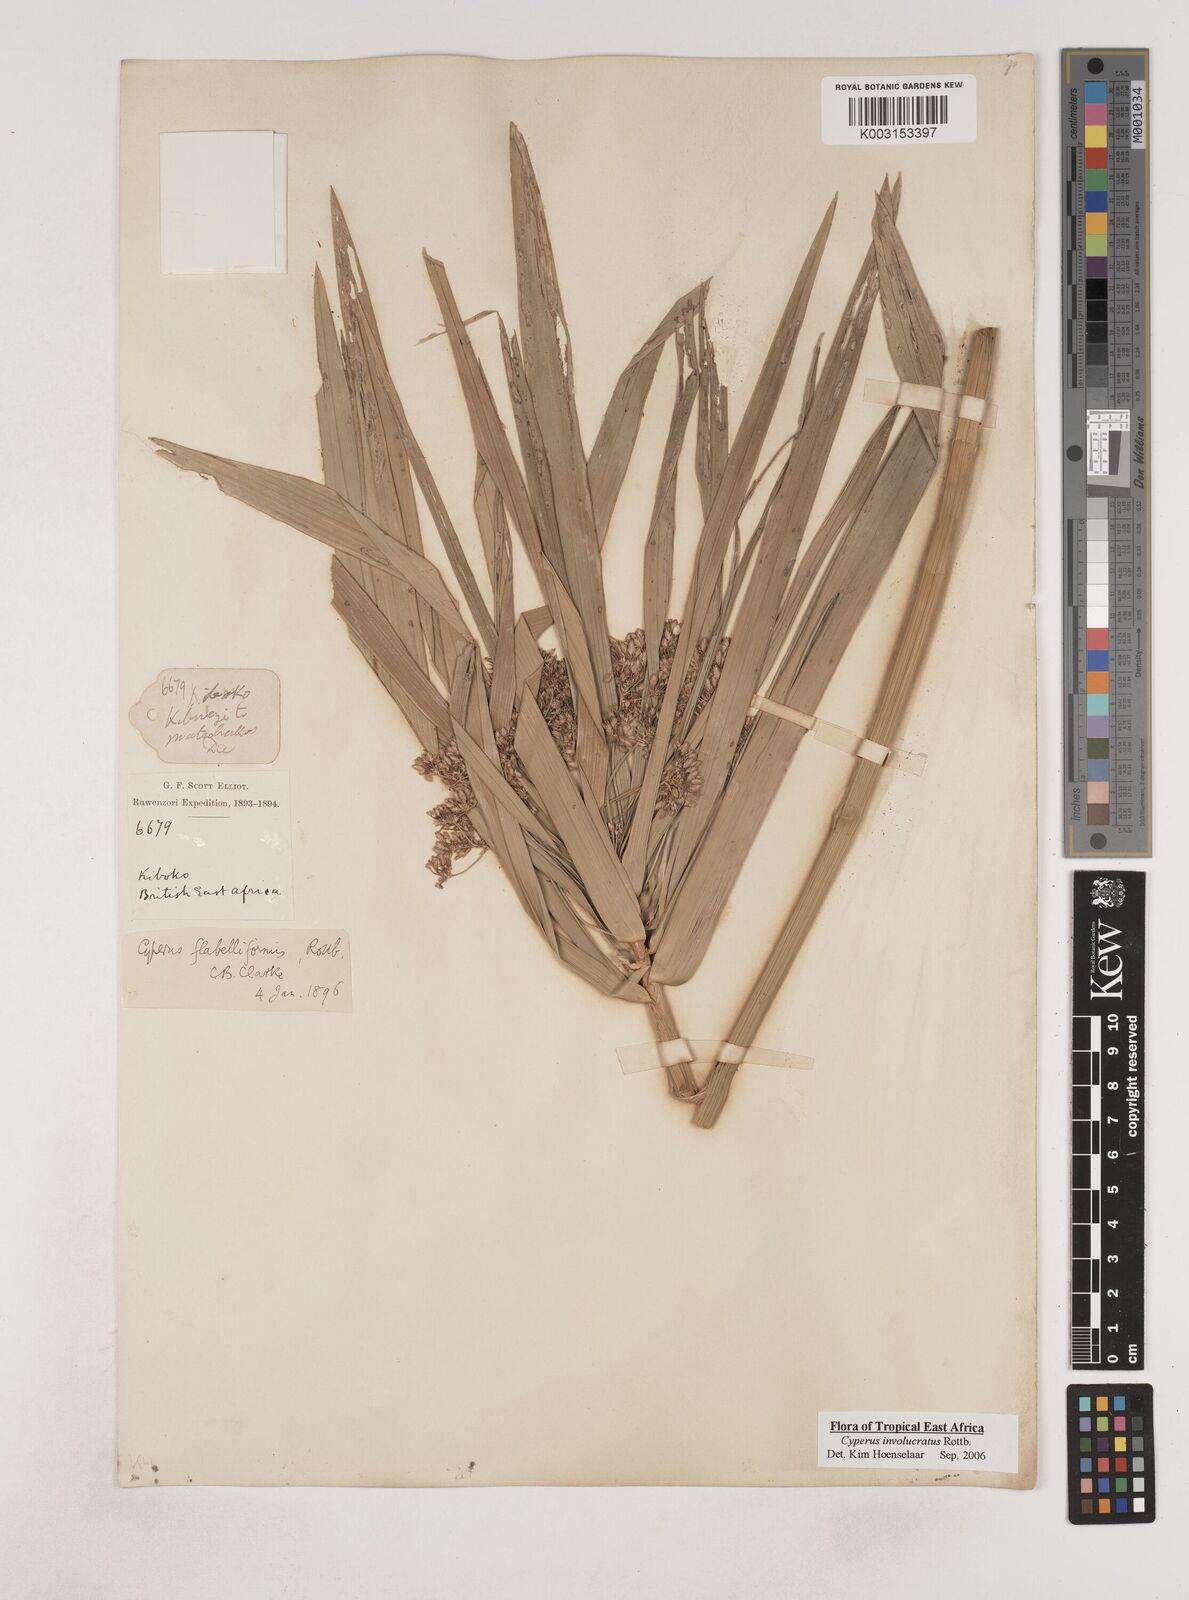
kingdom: Plantae
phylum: Tracheophyta
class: Liliopsida
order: Poales
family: Cyperaceae
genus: Cyperus
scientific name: Cyperus alternifolius
